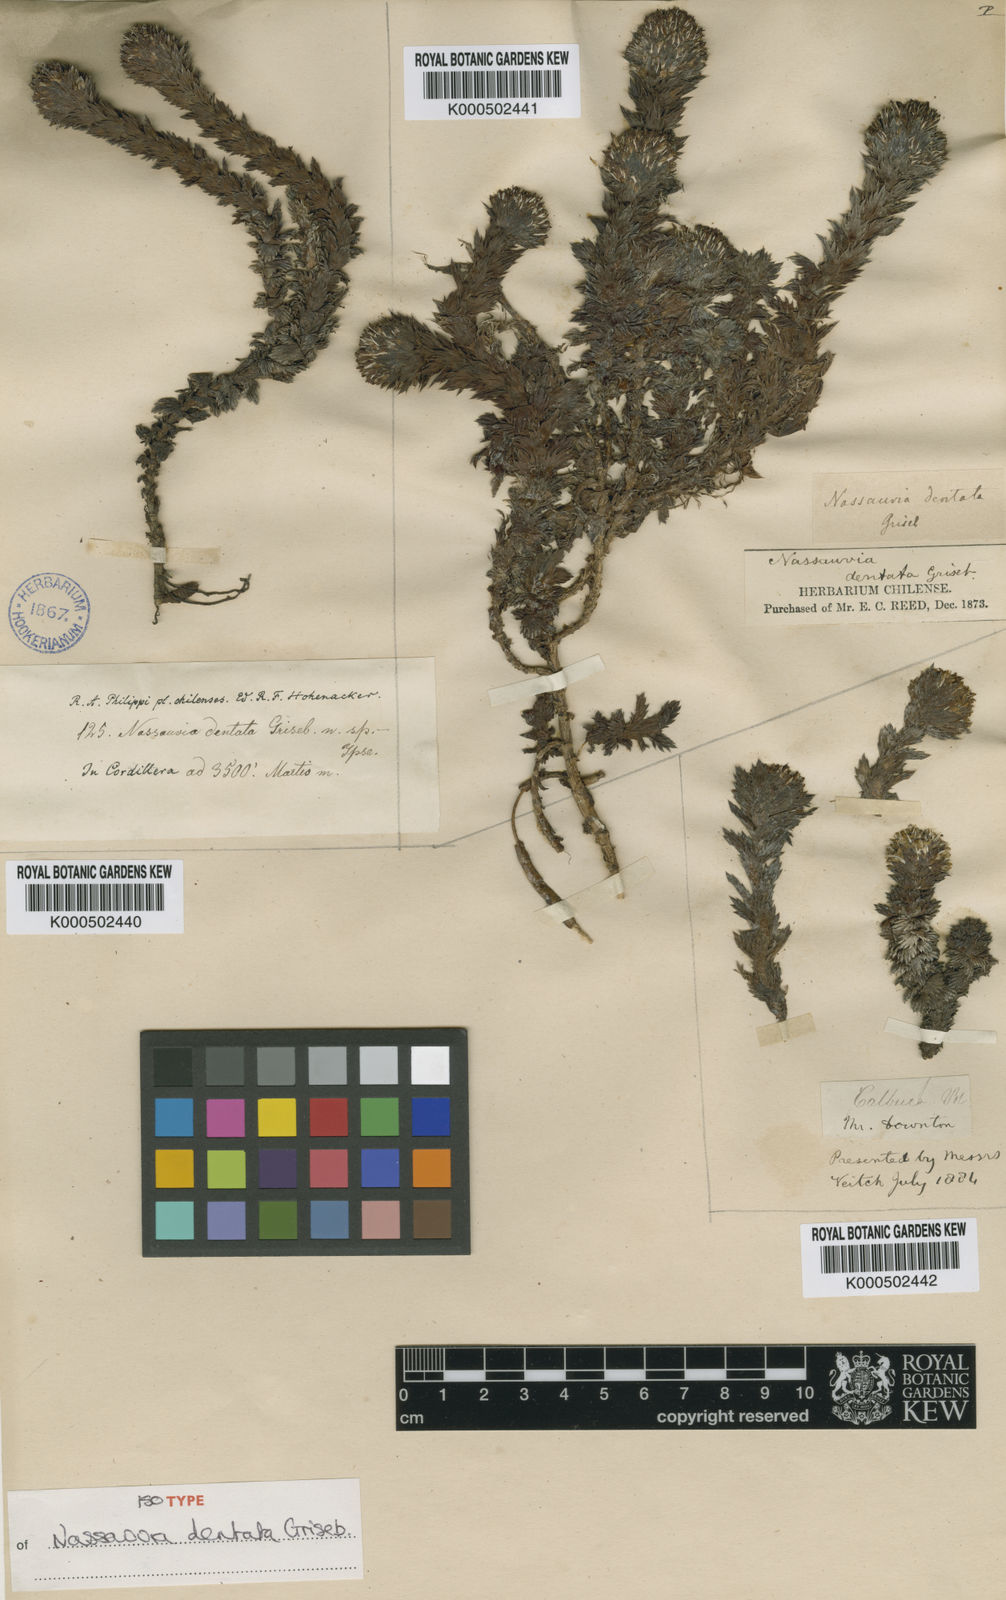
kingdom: Plantae
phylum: Tracheophyta
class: Magnoliopsida
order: Asterales
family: Asteraceae
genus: Nassauvia
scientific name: Nassauvia dentata
